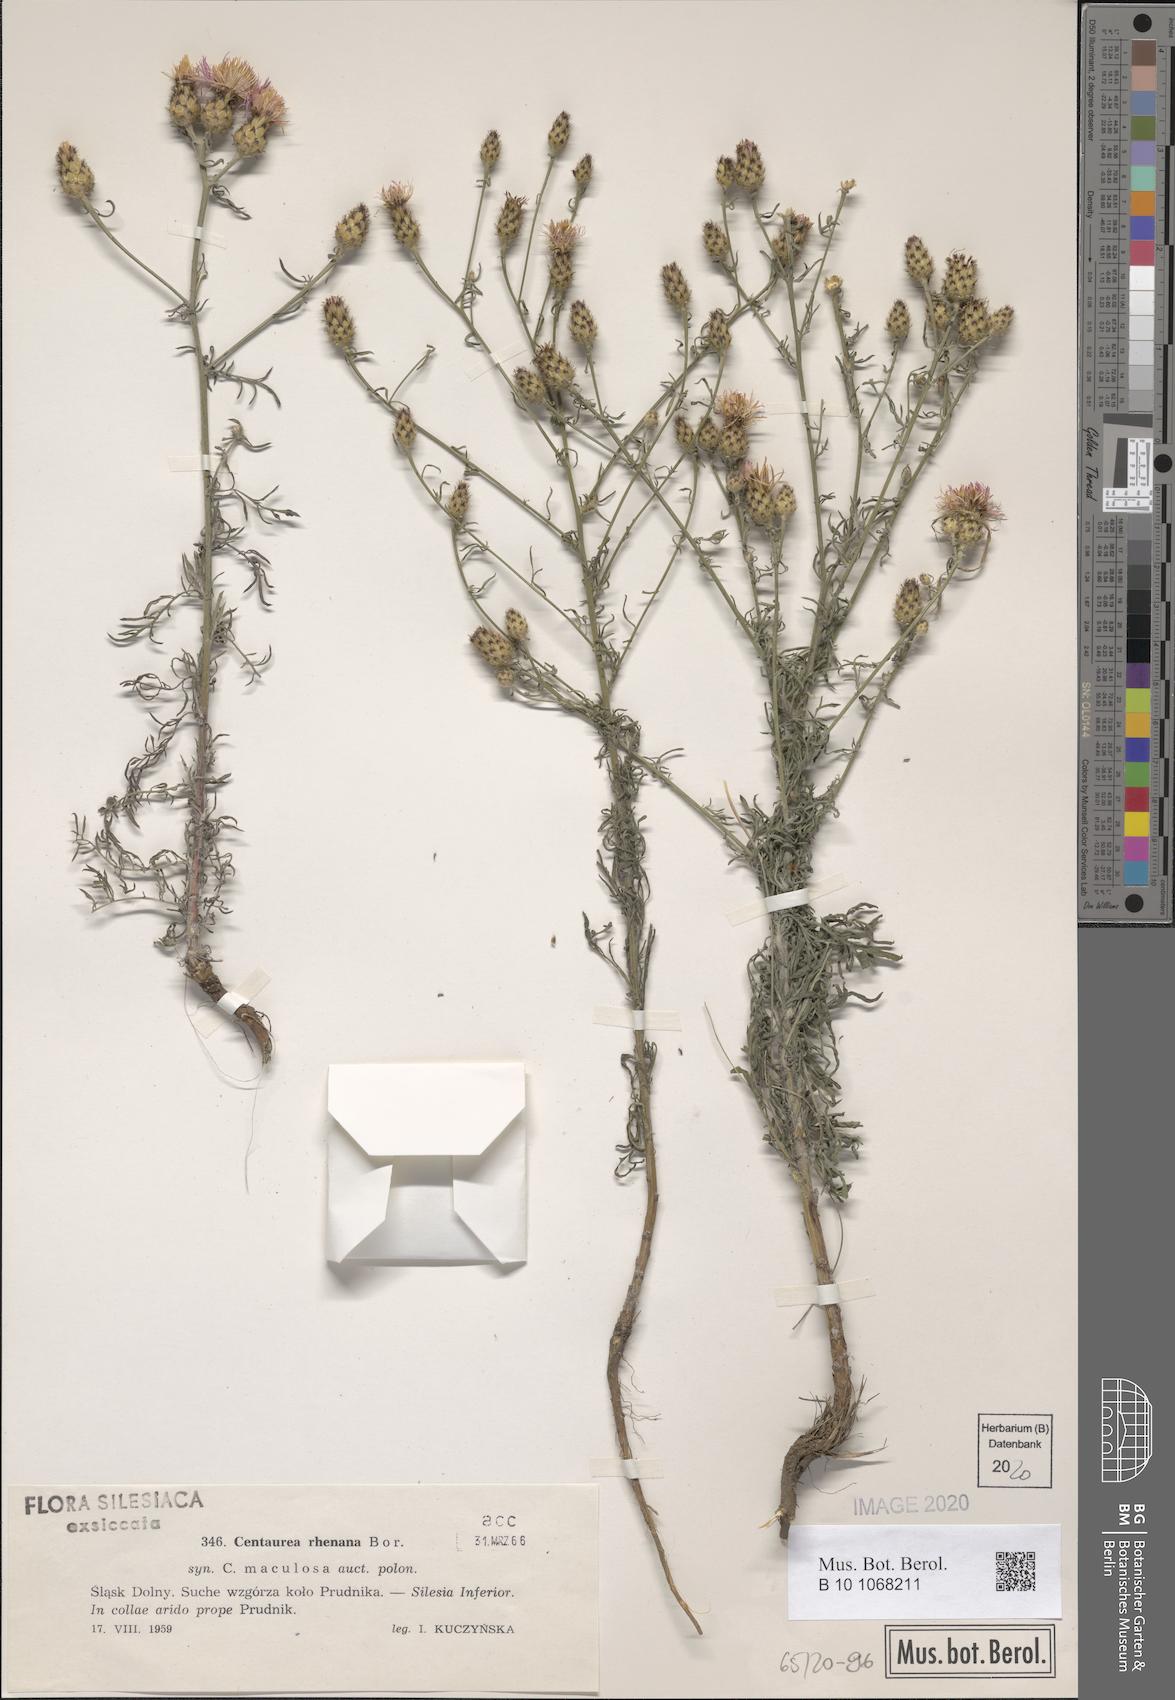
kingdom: Plantae
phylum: Tracheophyta
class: Magnoliopsida
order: Asterales
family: Asteraceae
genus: Centaurea
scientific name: Centaurea stoebe
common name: Spotted knapweed
